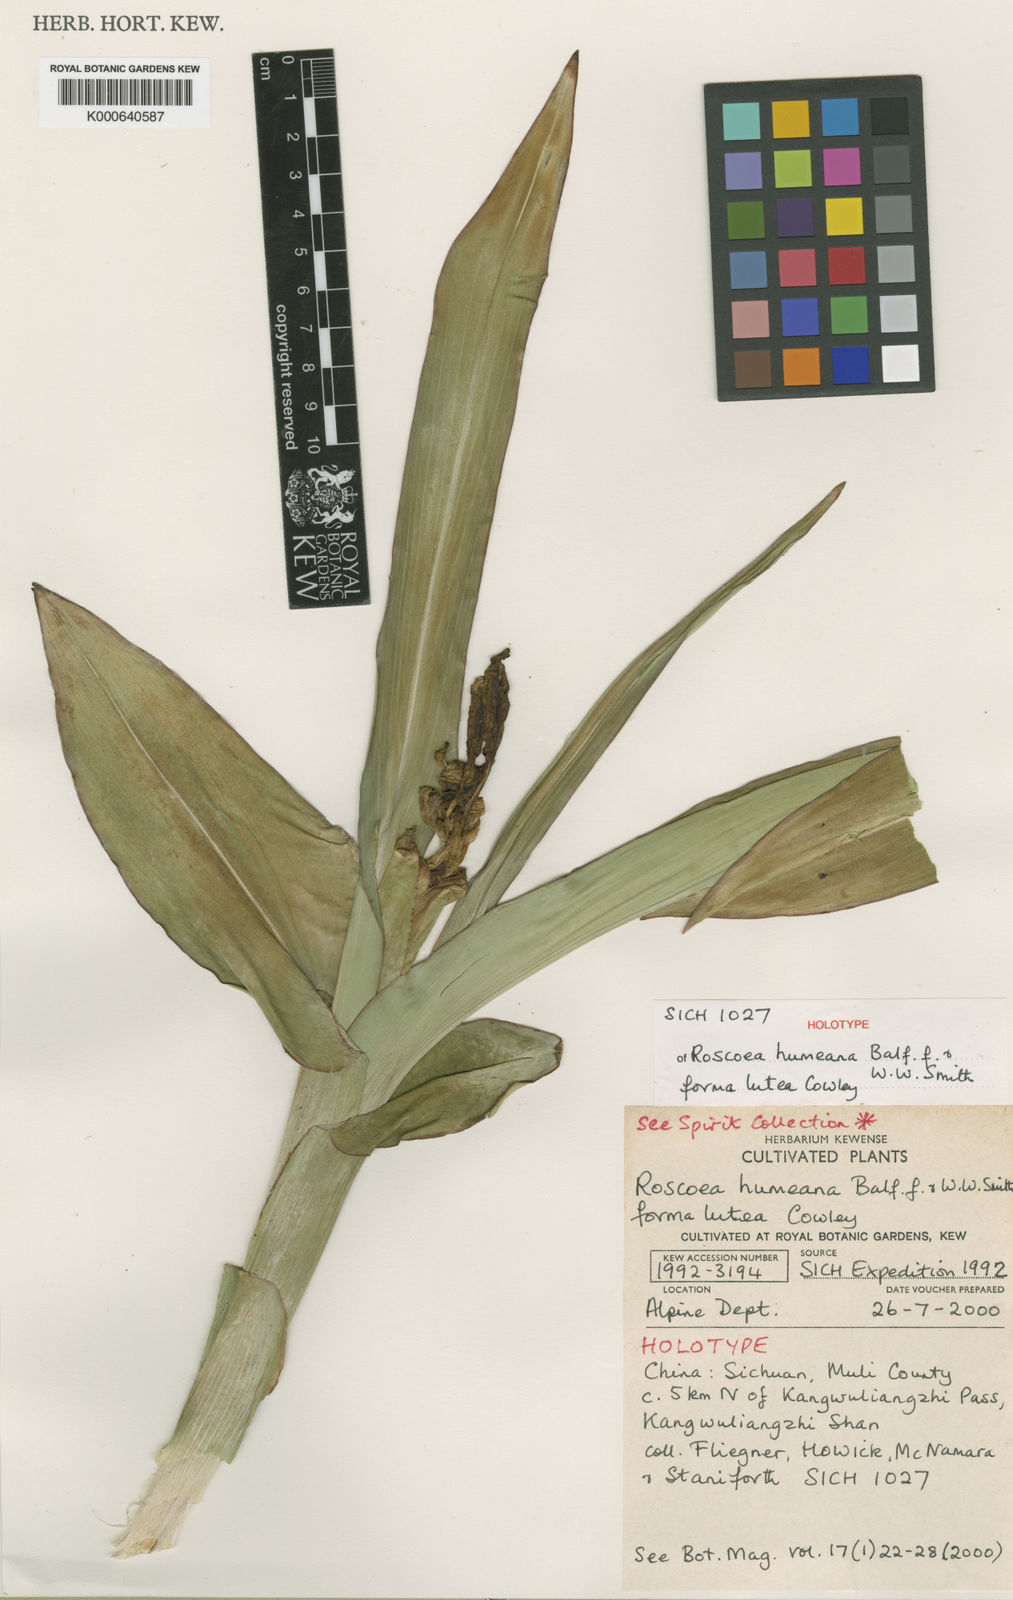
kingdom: Plantae
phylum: Tracheophyta
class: Liliopsida
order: Zingiberales
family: Zingiberaceae
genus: Roscoea
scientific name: Roscoea humeana
